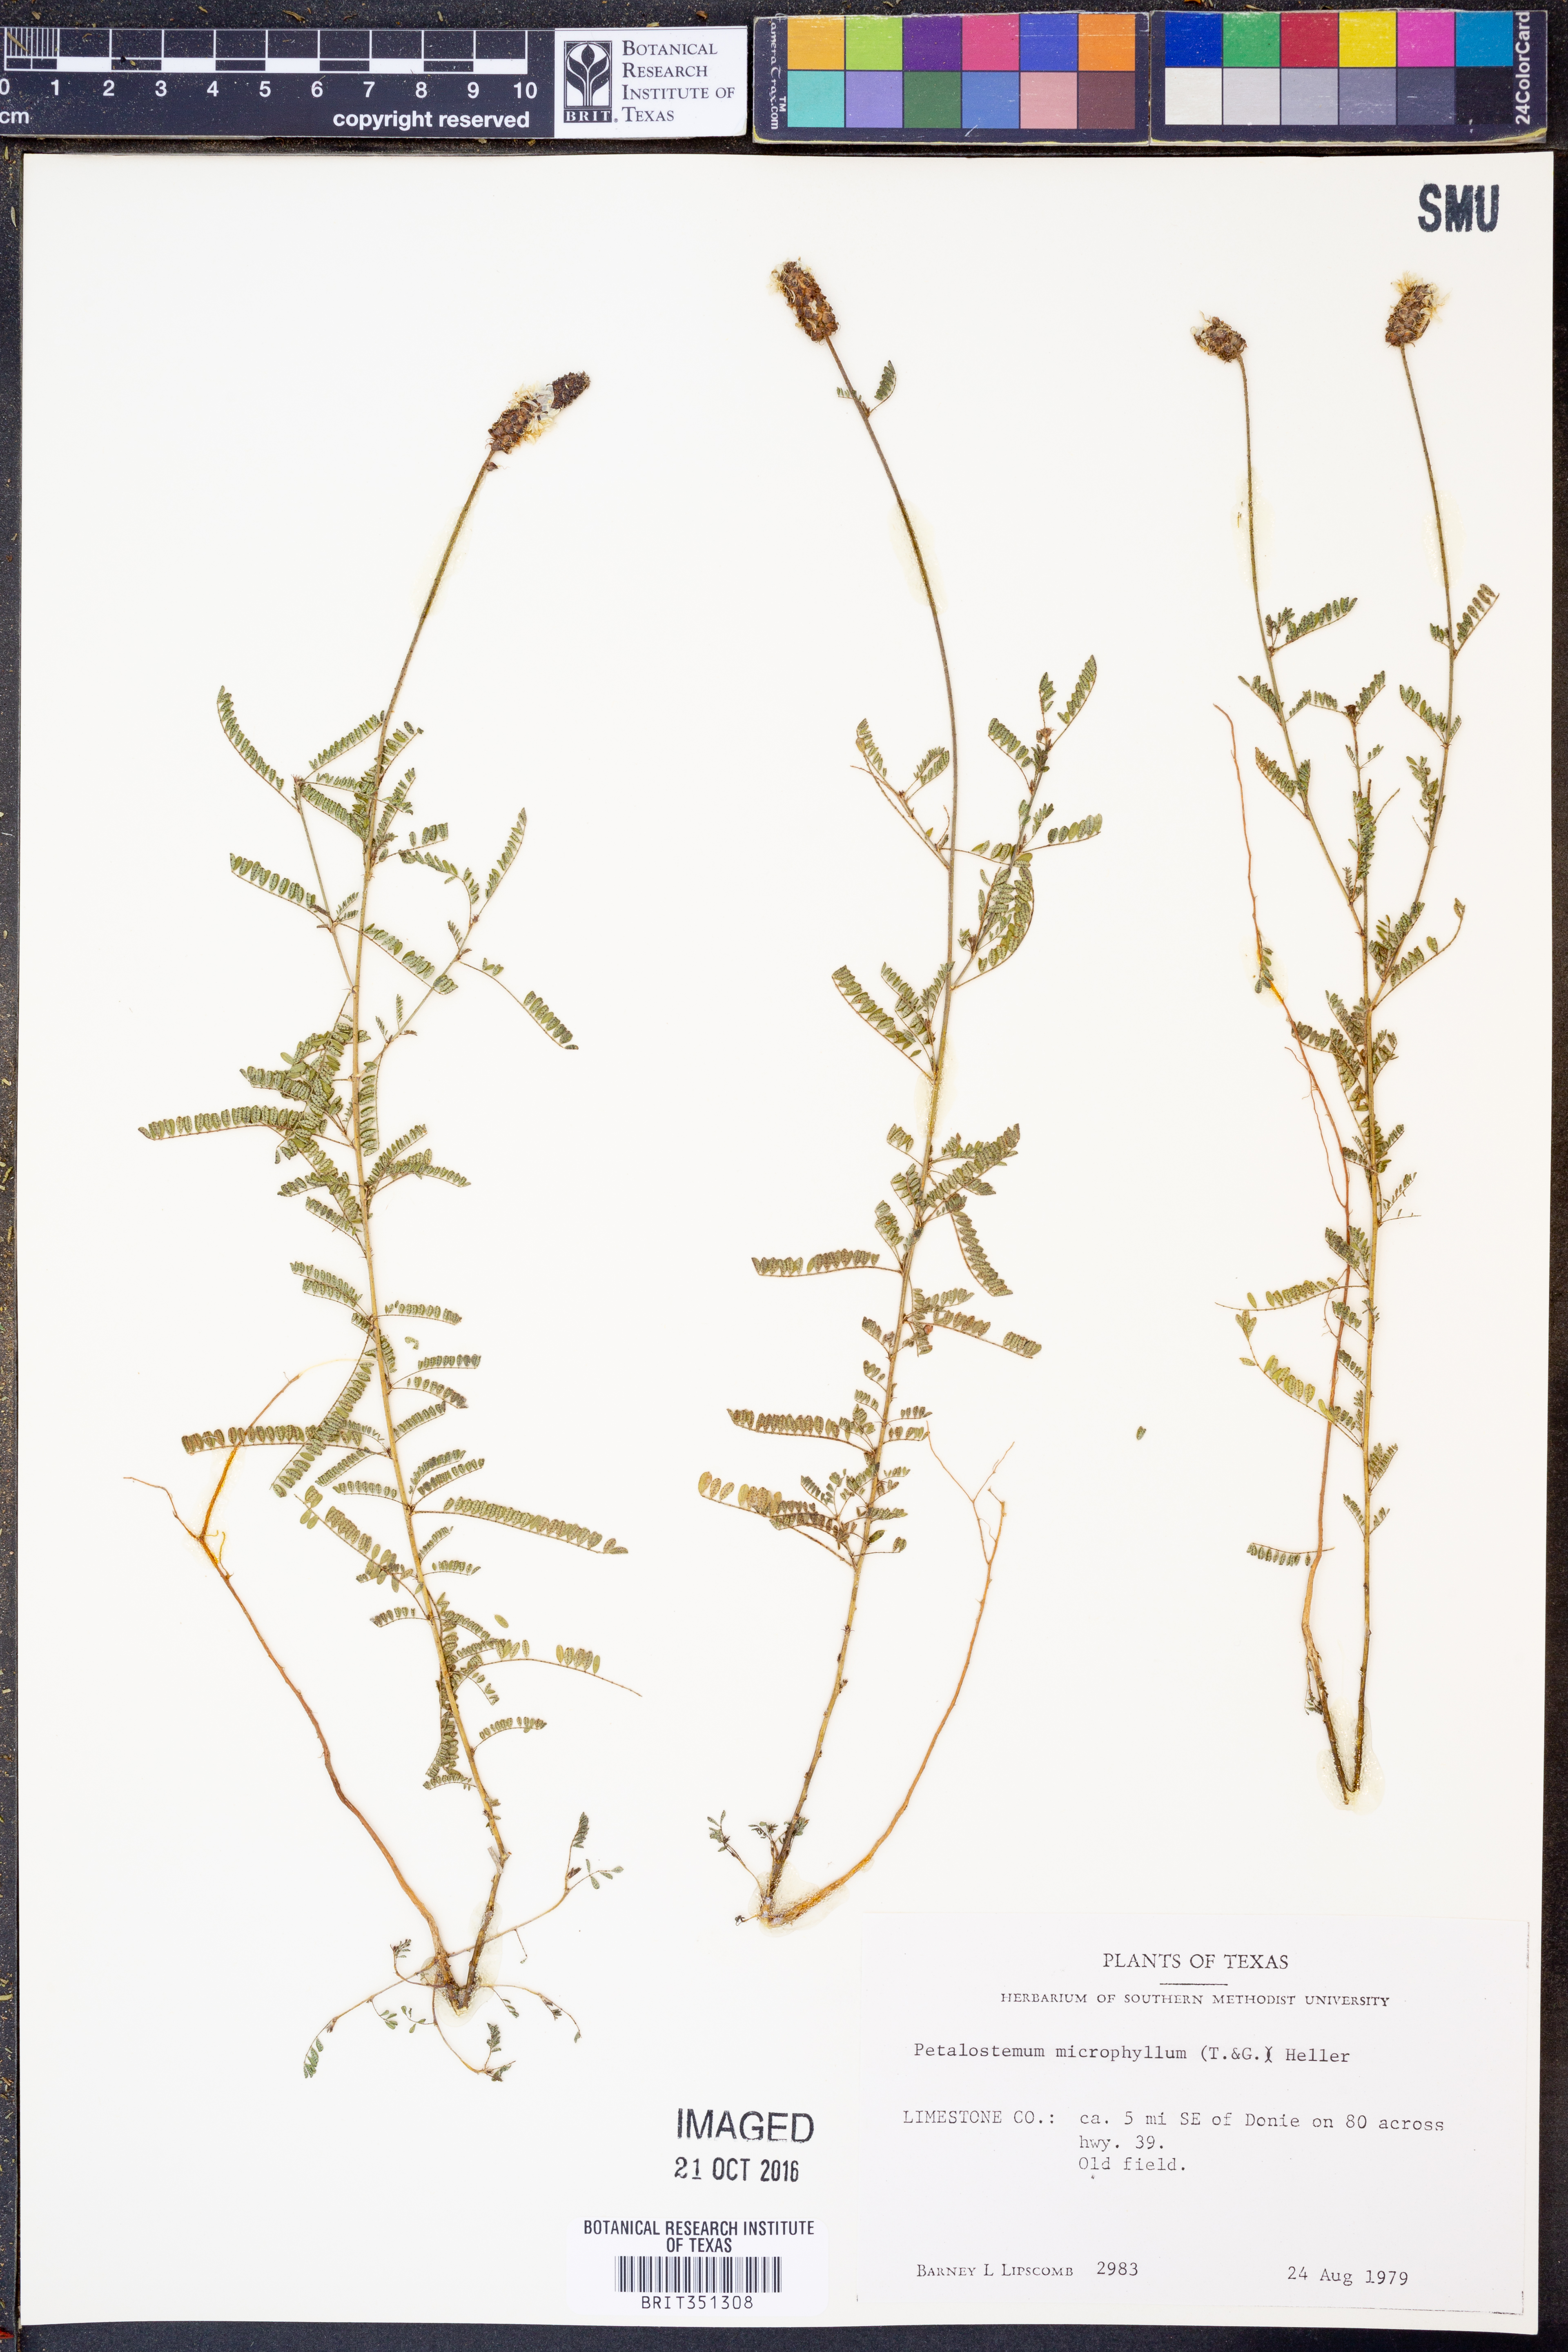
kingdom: Plantae
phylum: Tracheophyta
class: Magnoliopsida
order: Fabales
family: Fabaceae
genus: Dalea
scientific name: Dalea drummondiana
